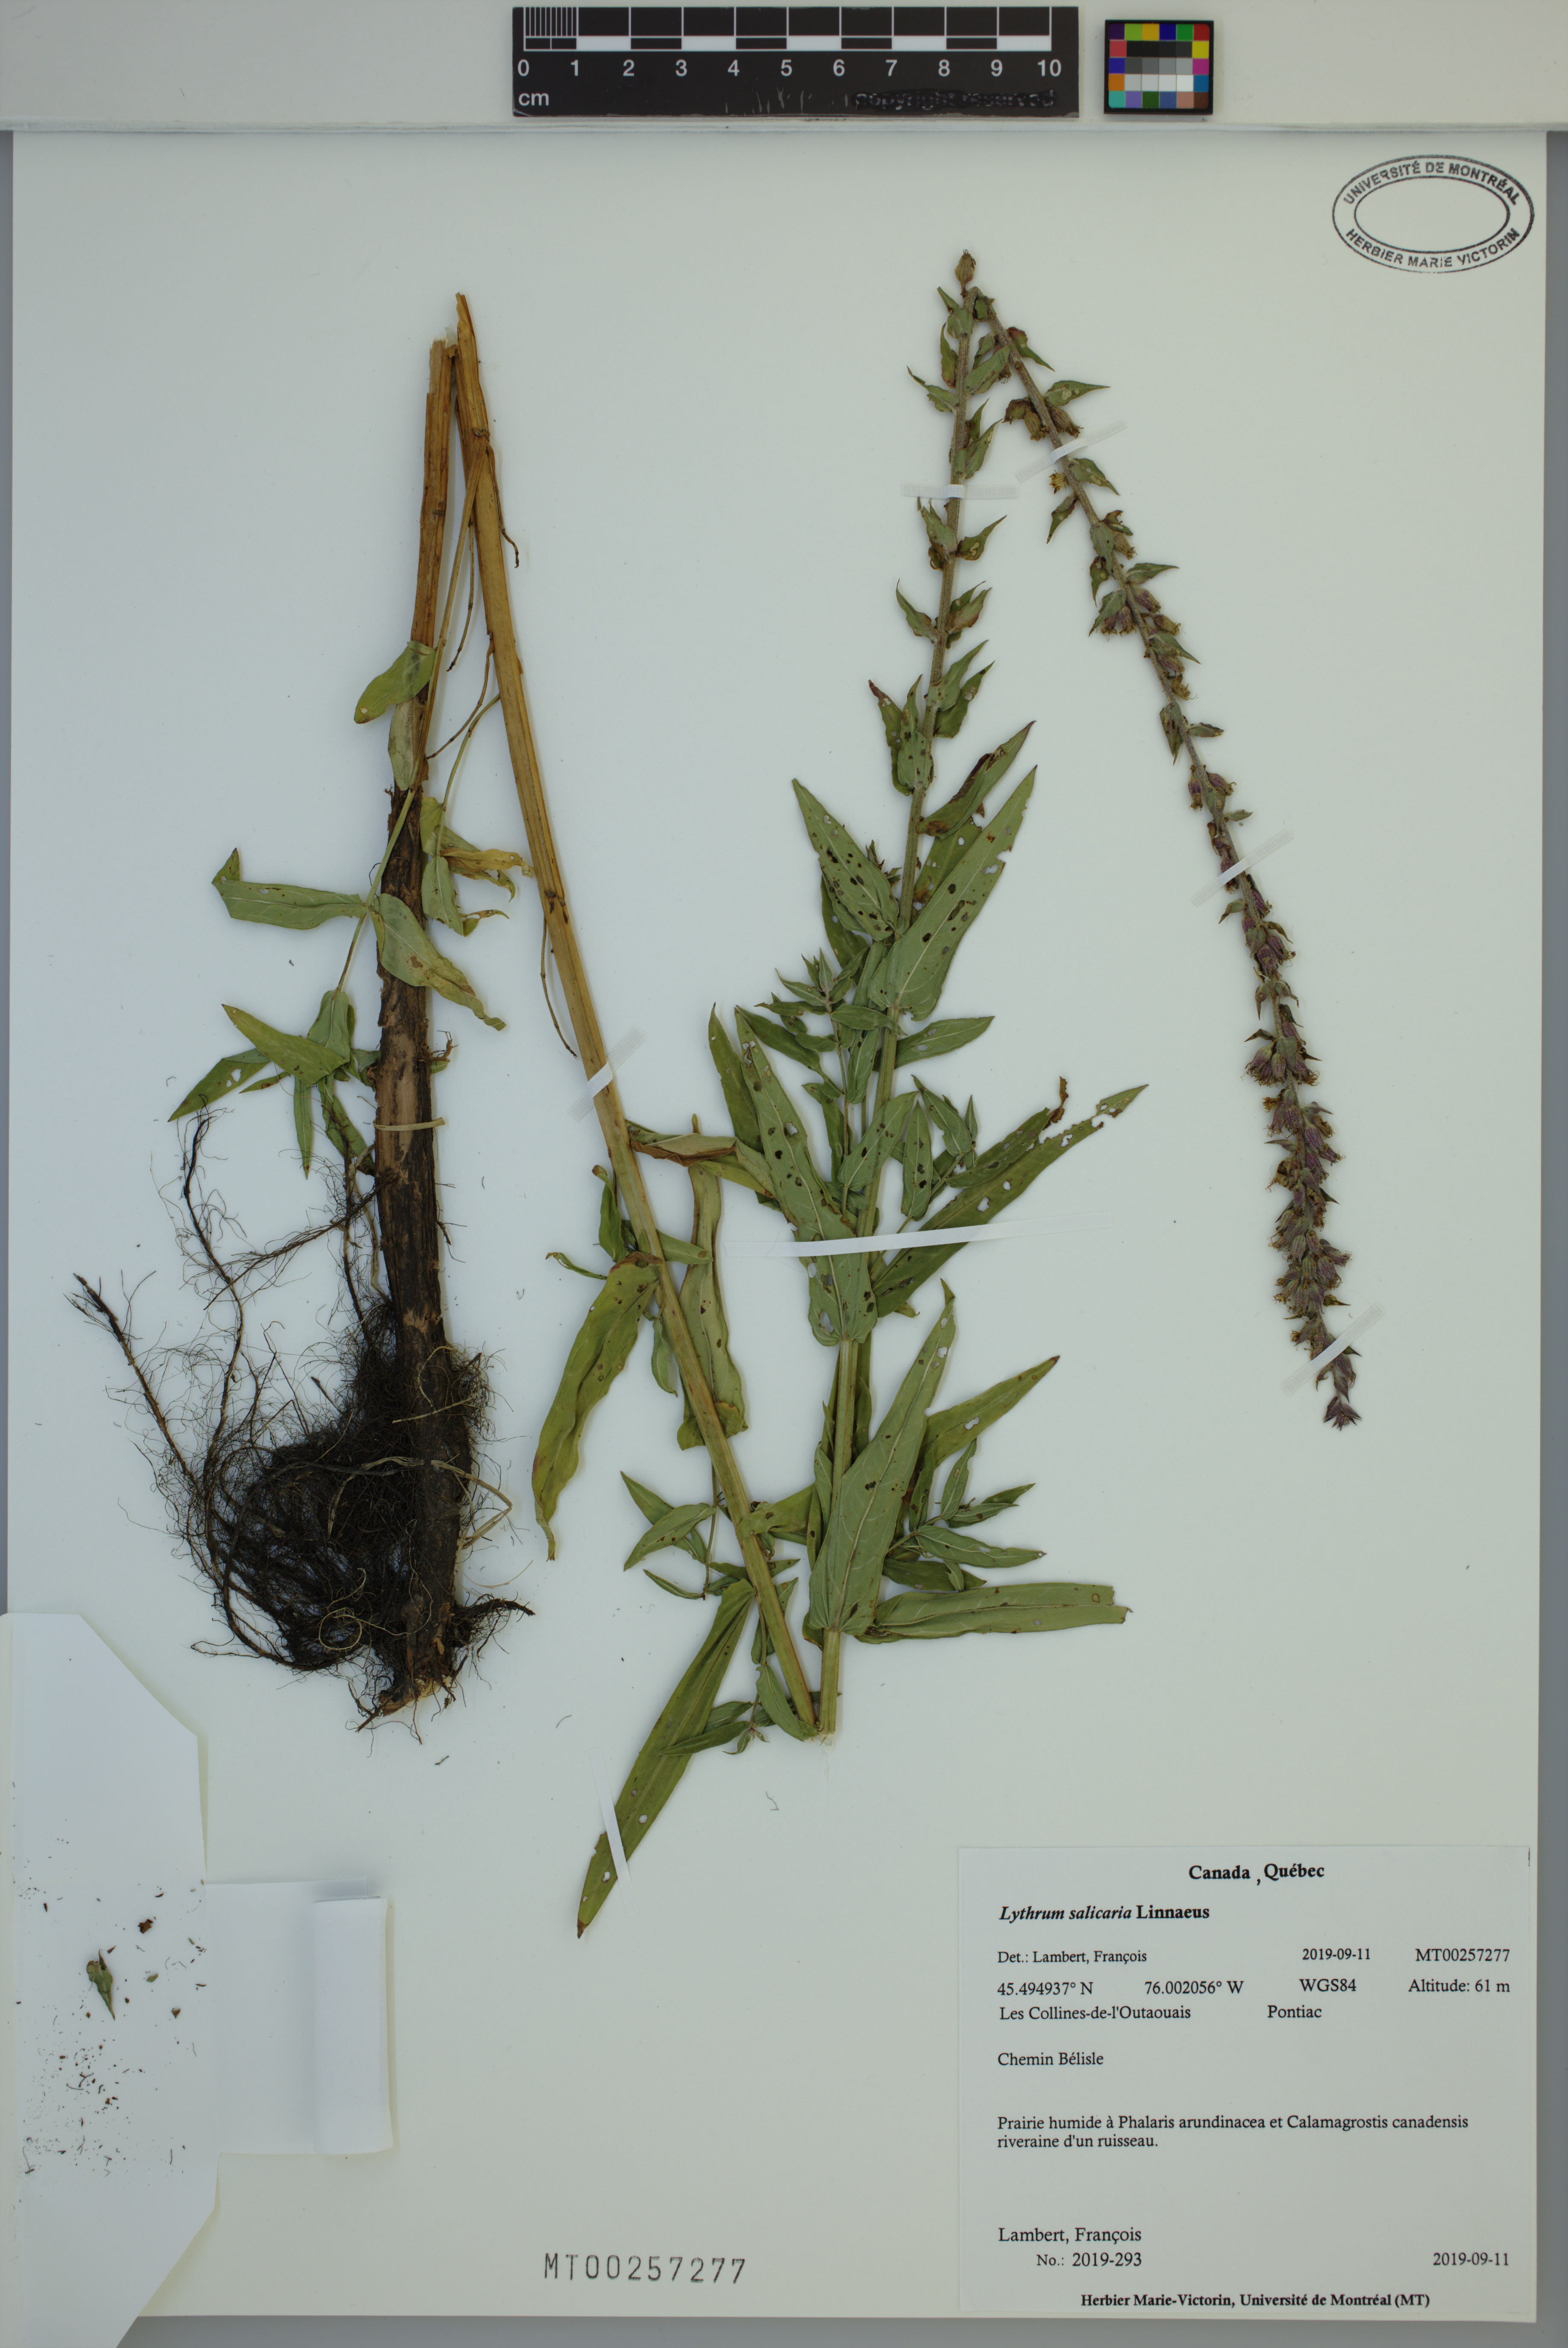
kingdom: Plantae
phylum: Tracheophyta
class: Magnoliopsida
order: Myrtales
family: Lythraceae
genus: Lythrum
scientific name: Lythrum salicaria
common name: Purple loosestrife
